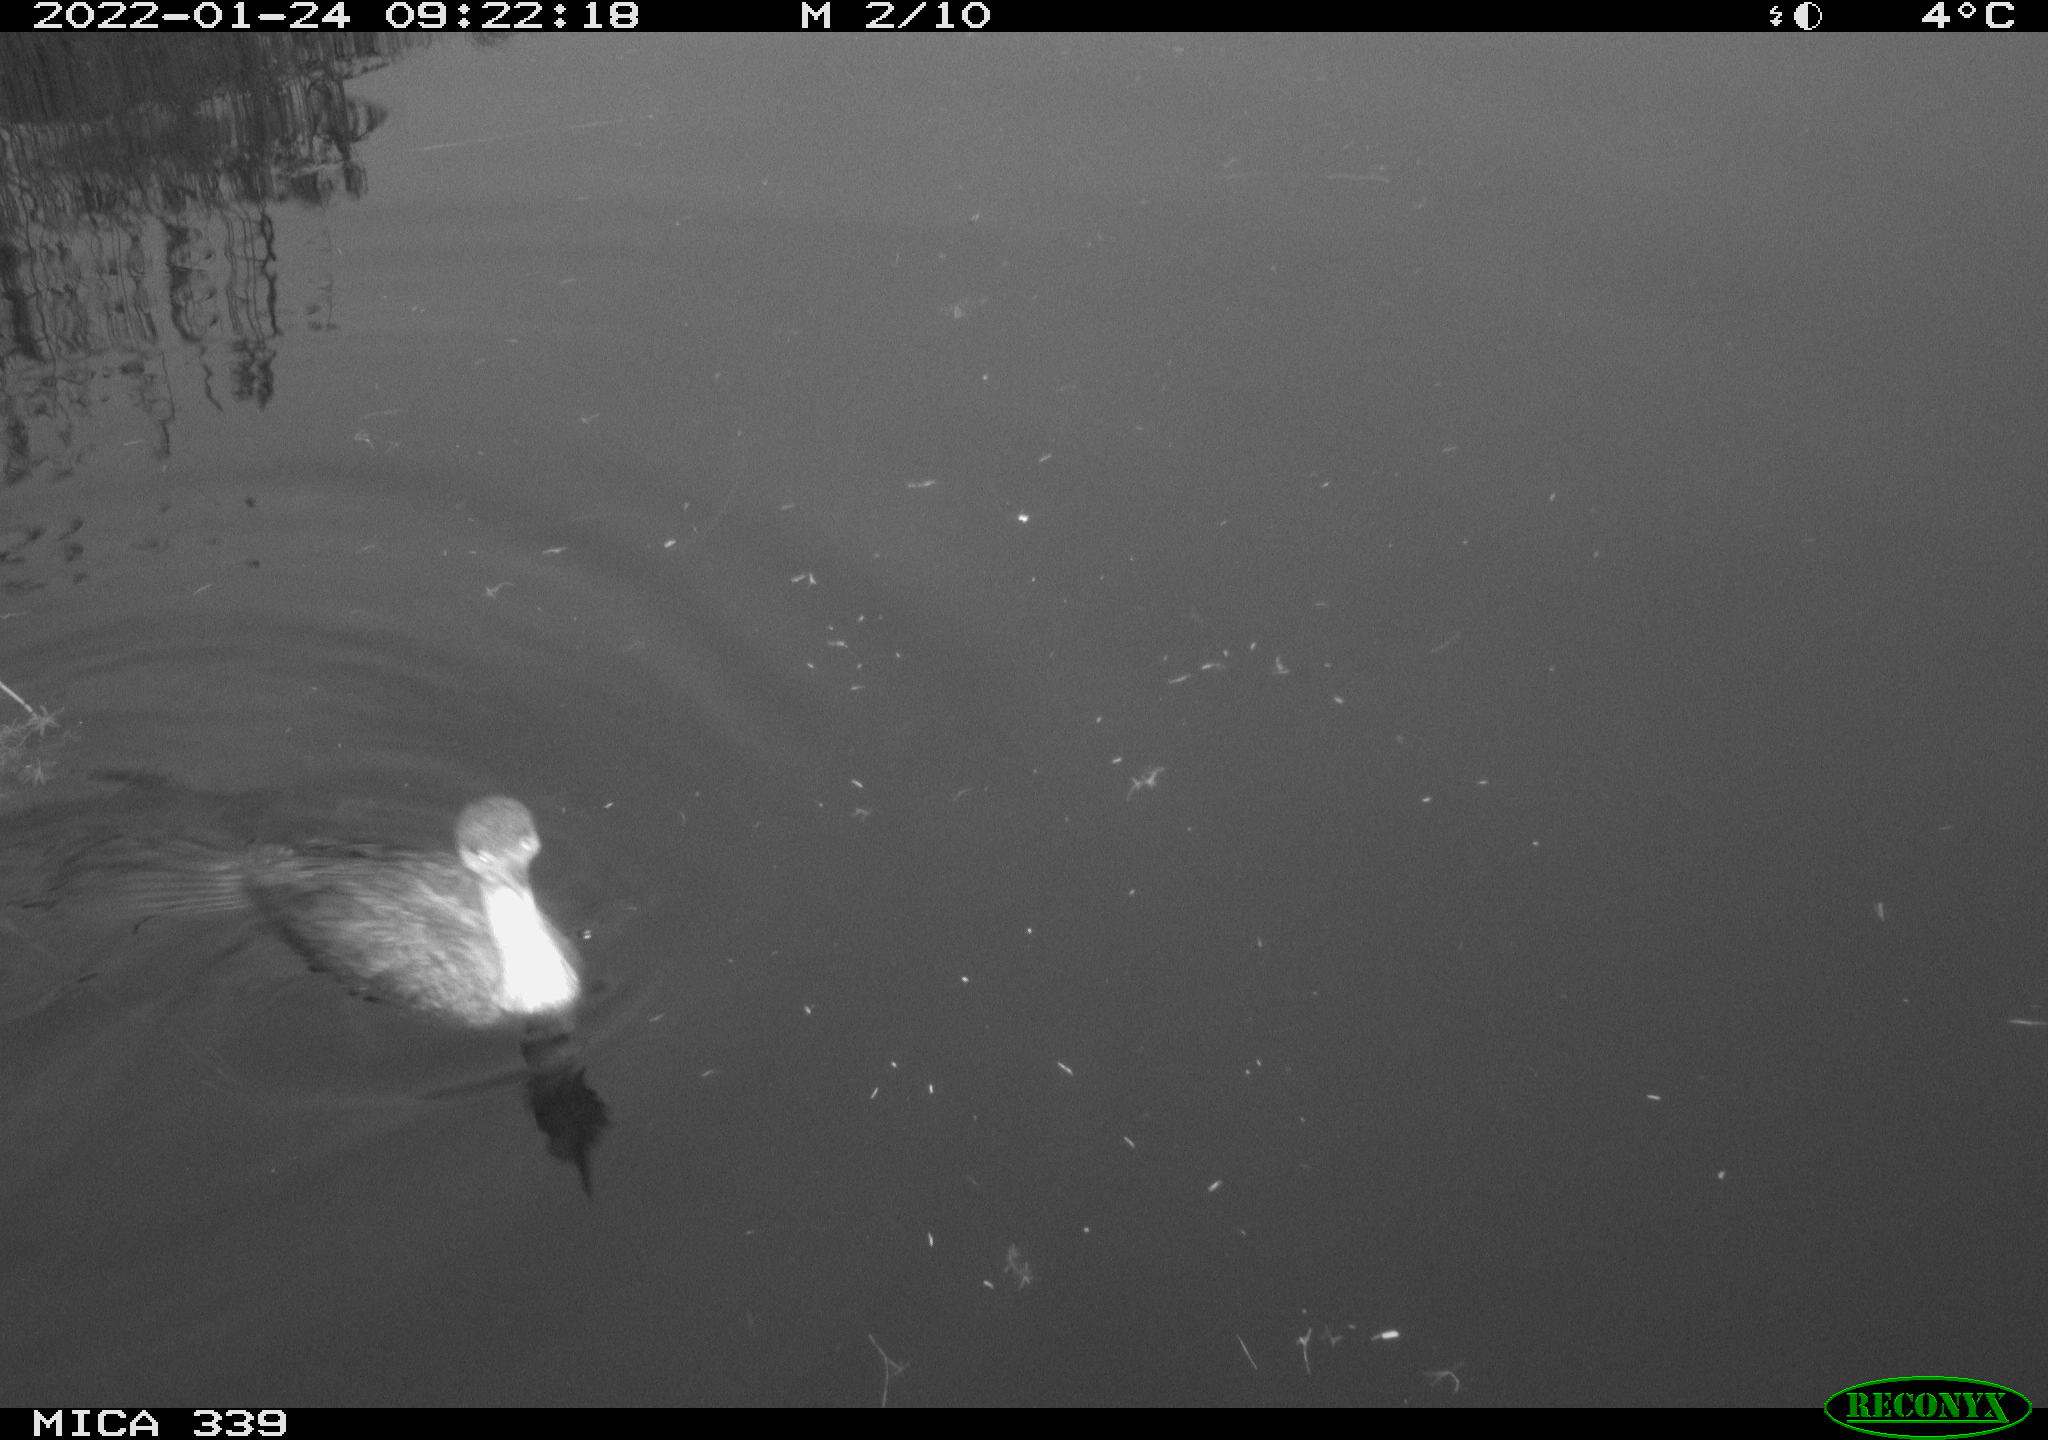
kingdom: Animalia
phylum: Chordata
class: Aves
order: Suliformes
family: Phalacrocoracidae
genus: Phalacrocorax
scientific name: Phalacrocorax carbo
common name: Great cormorant
